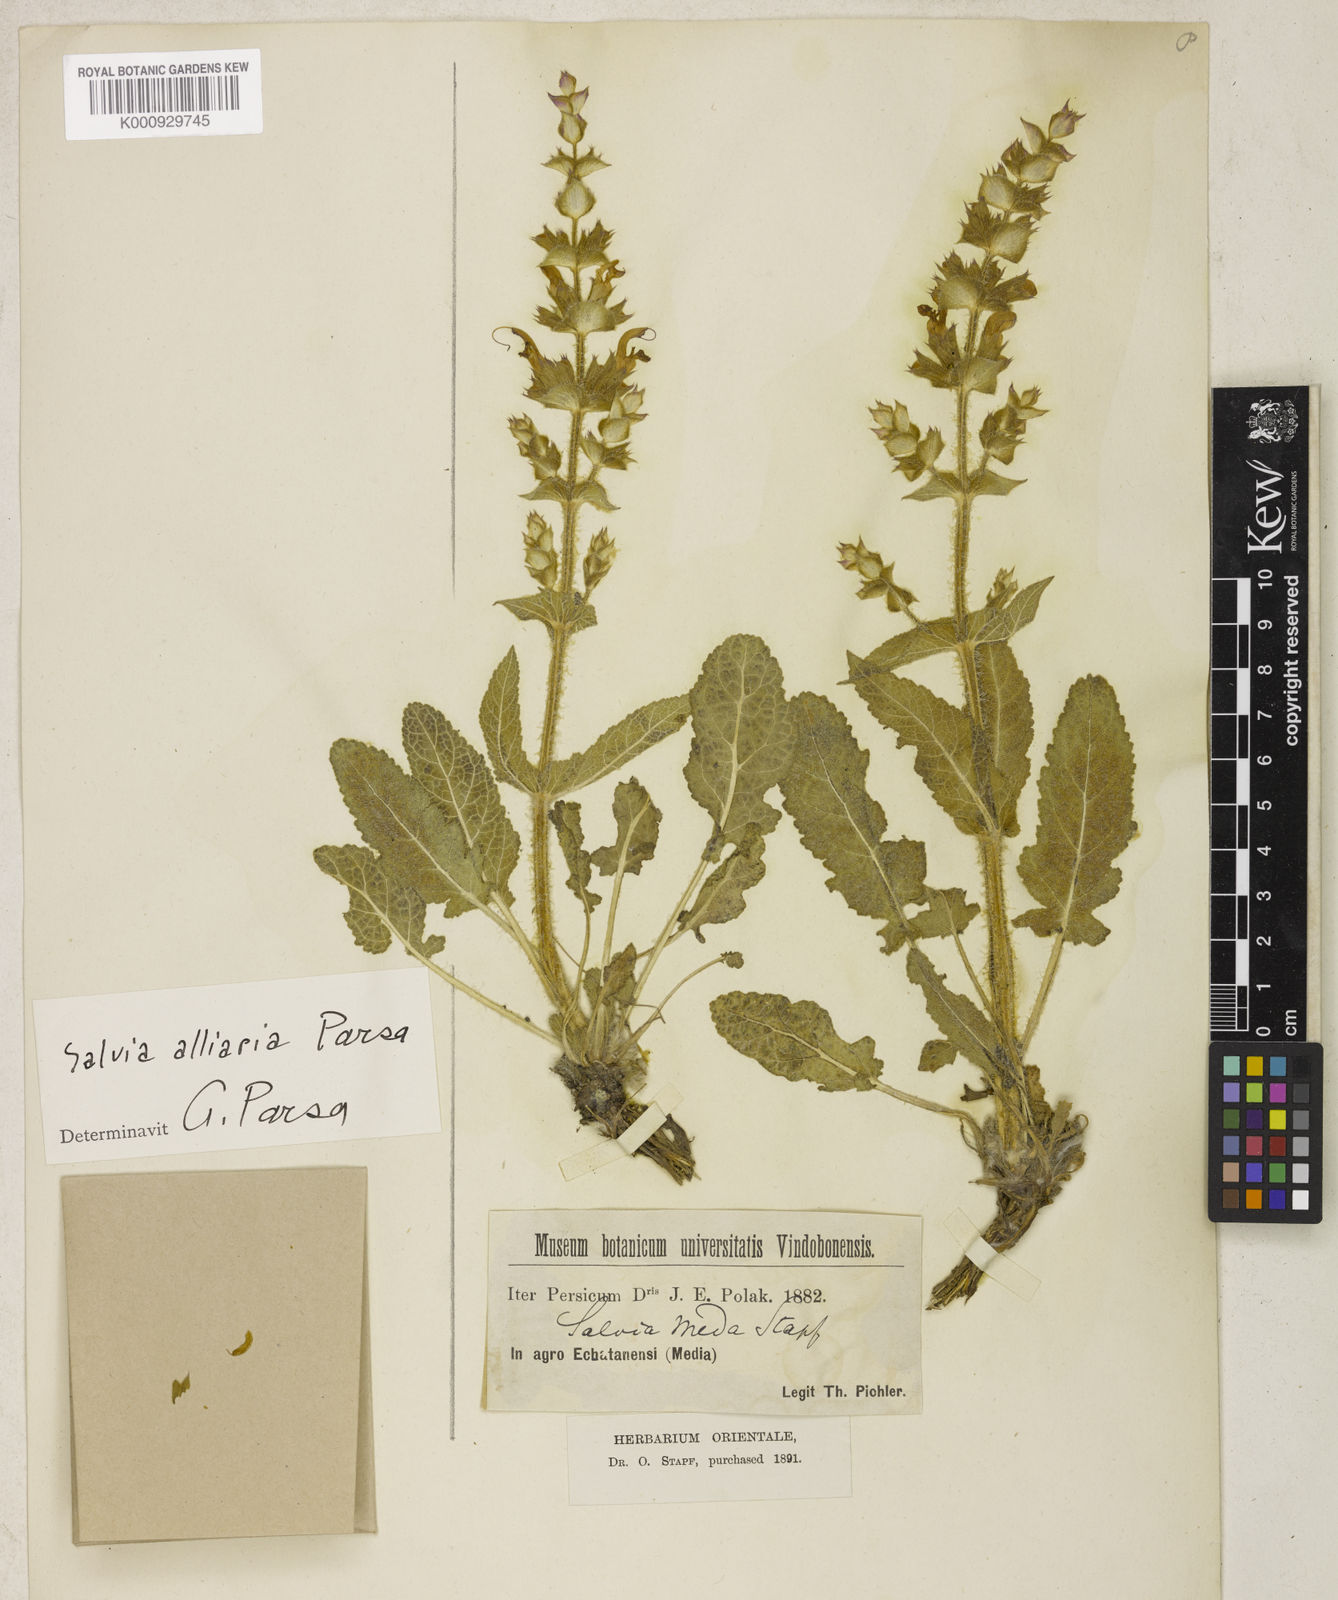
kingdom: Plantae
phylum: Tracheophyta
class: Magnoliopsida
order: Lamiales
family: Lamiaceae
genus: Salvia
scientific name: Salvia palaestina
